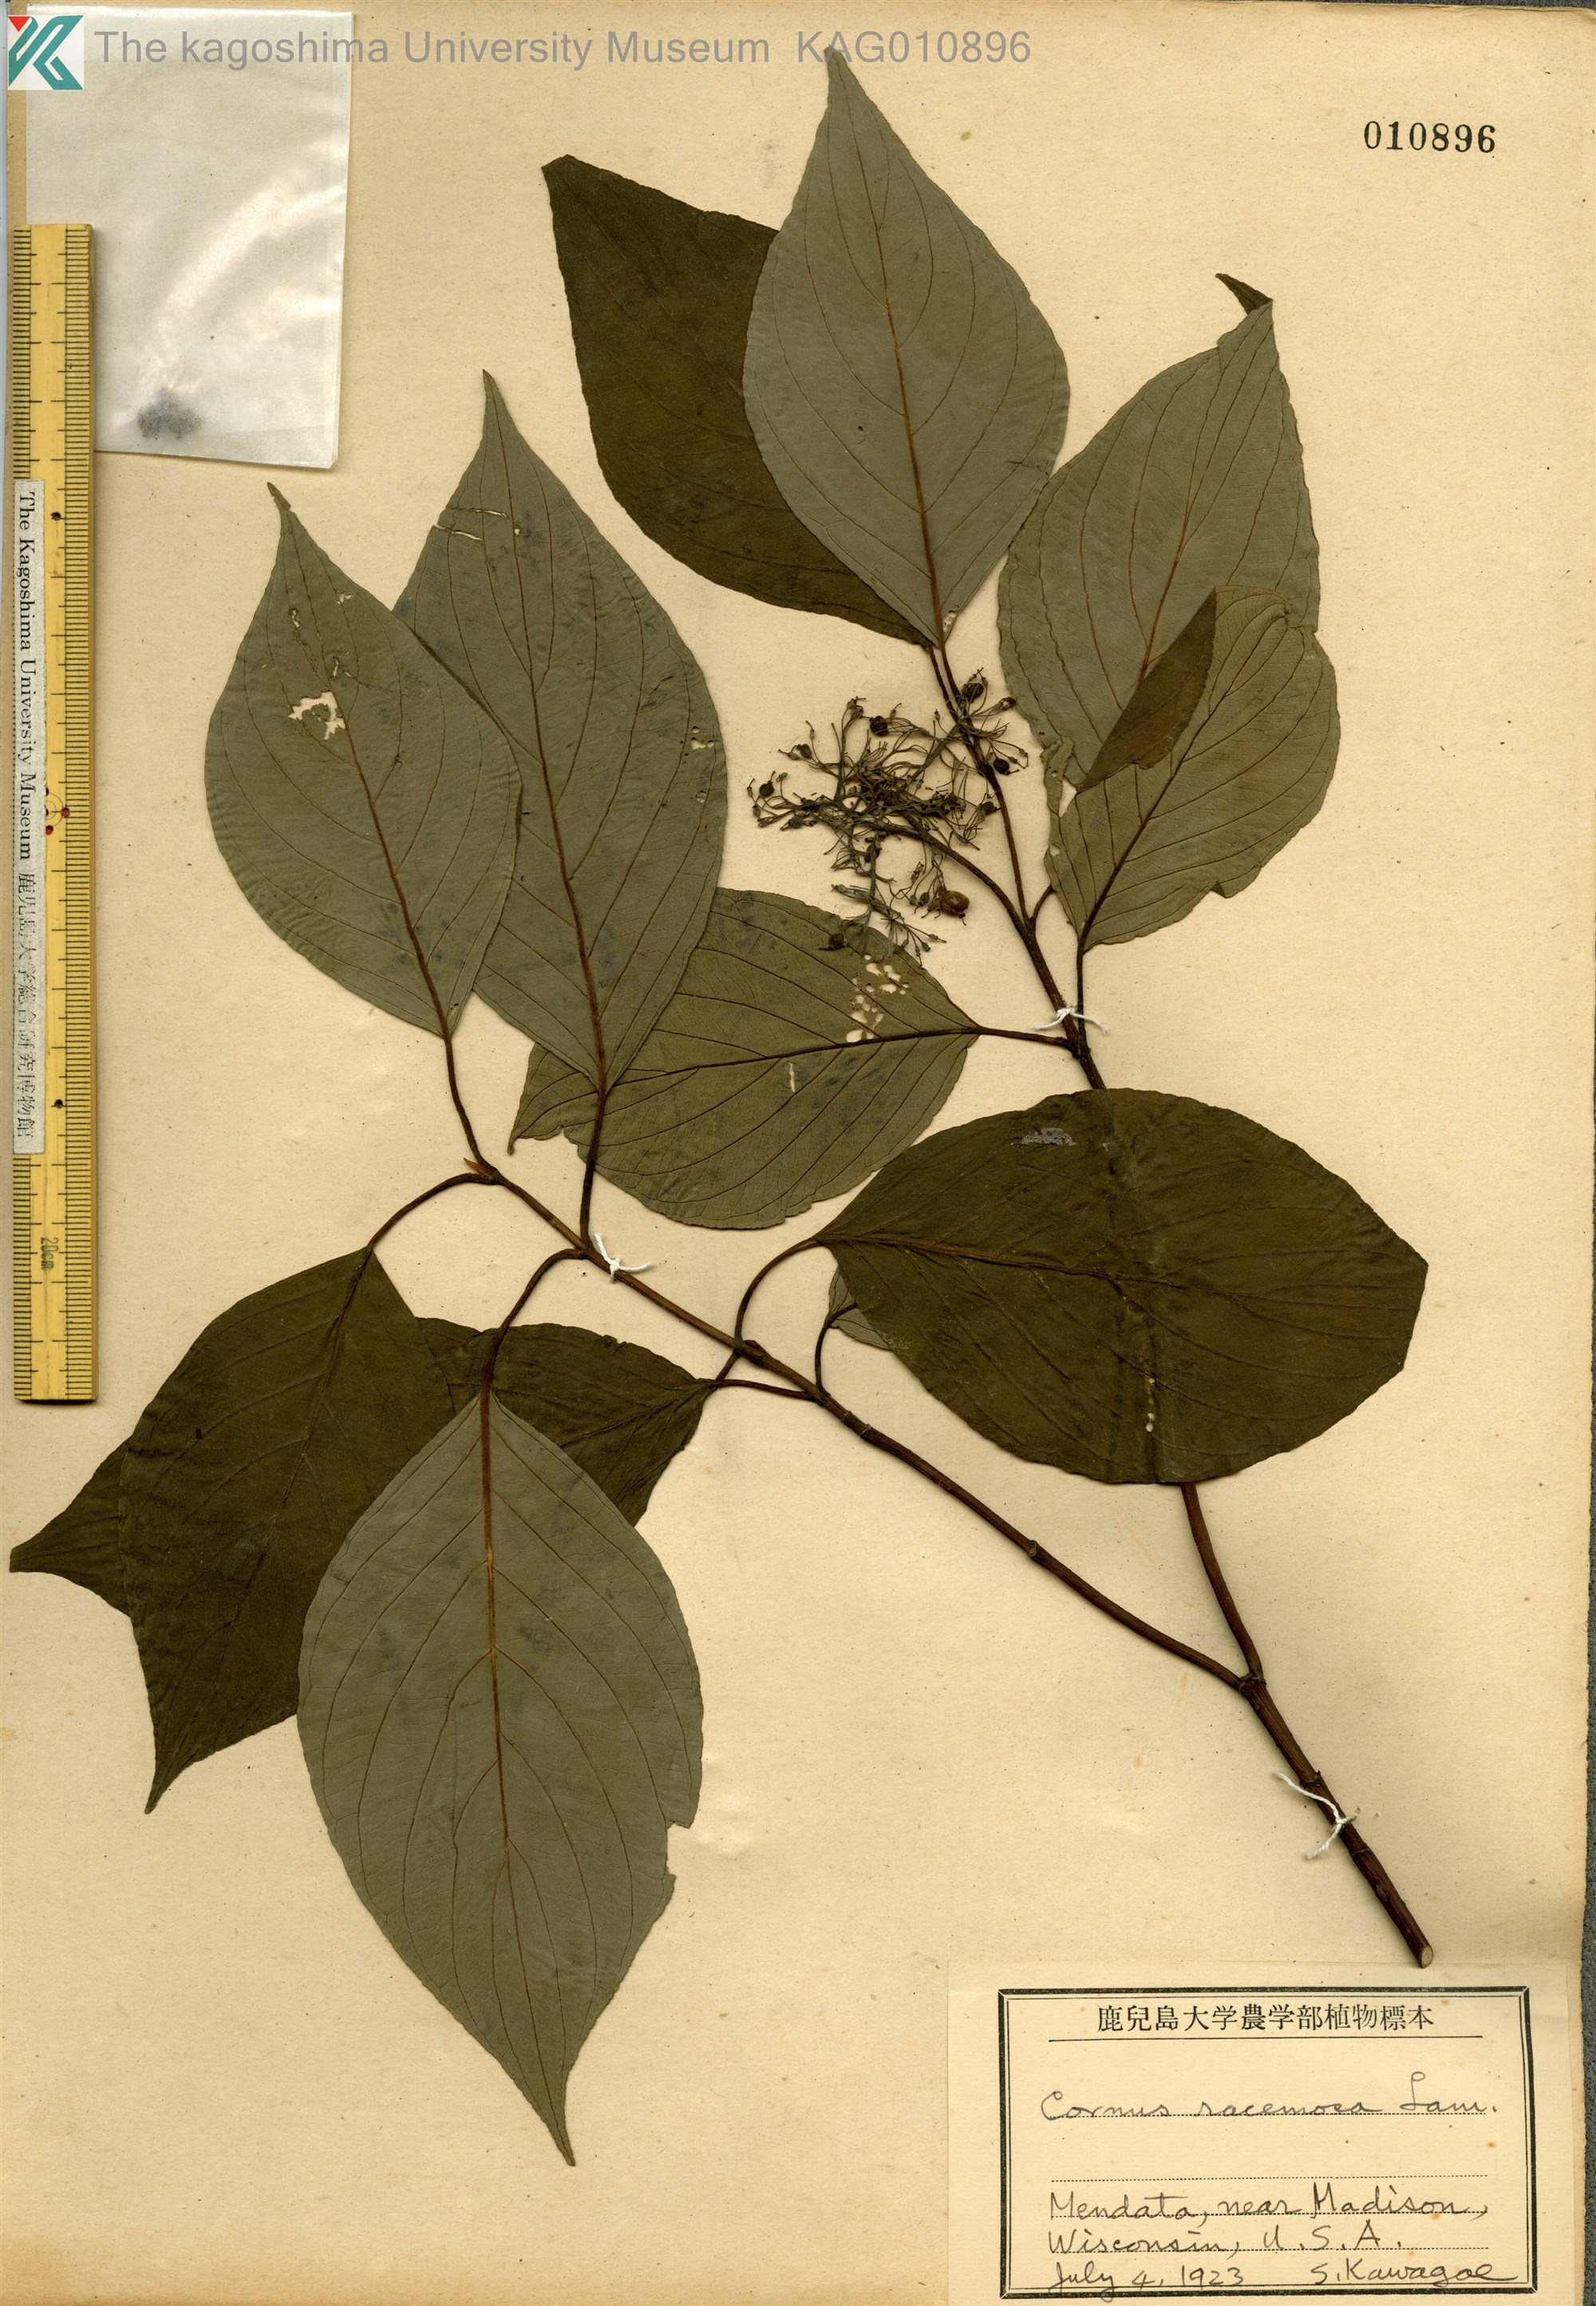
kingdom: Plantae
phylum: Tracheophyta
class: Magnoliopsida
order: Cornales
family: Cornaceae
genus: Cornus
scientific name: Cornus racemosa
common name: Panicled dogwood
